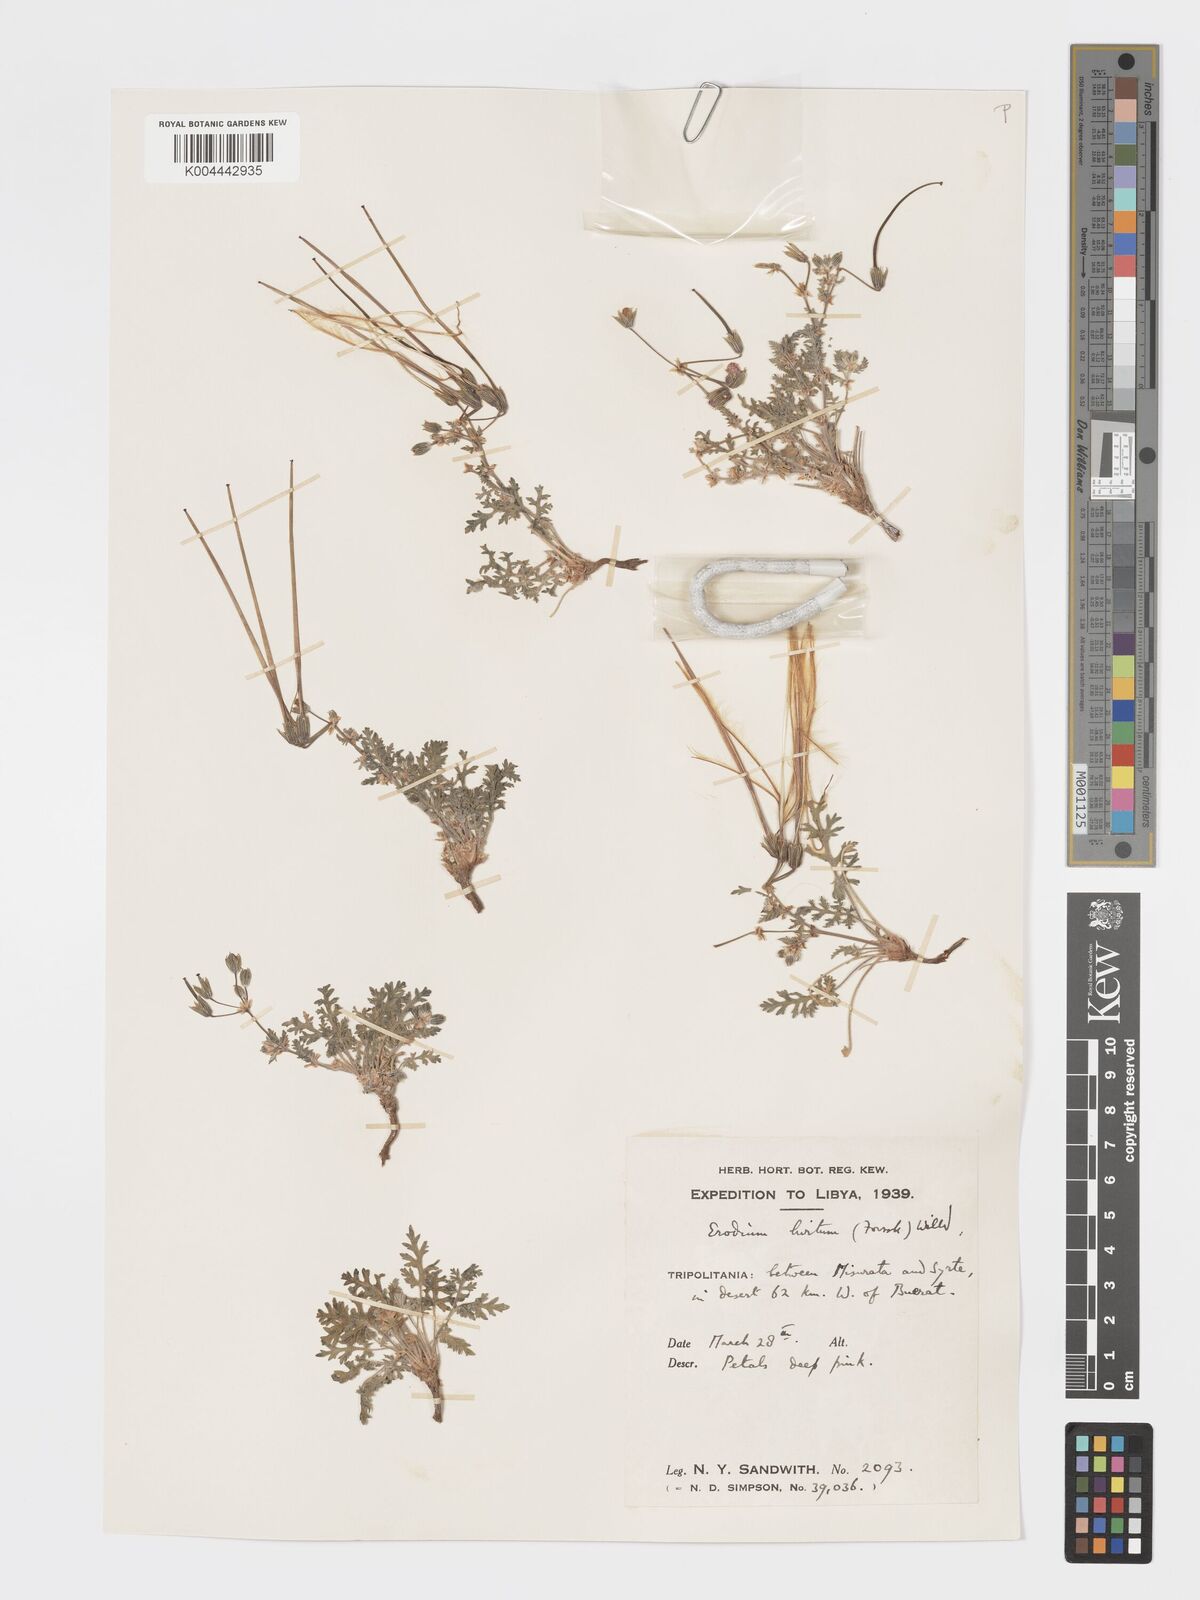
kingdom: Plantae
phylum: Tracheophyta
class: Magnoliopsida
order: Geraniales
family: Geraniaceae
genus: Erodium
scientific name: Erodium crassifolium
